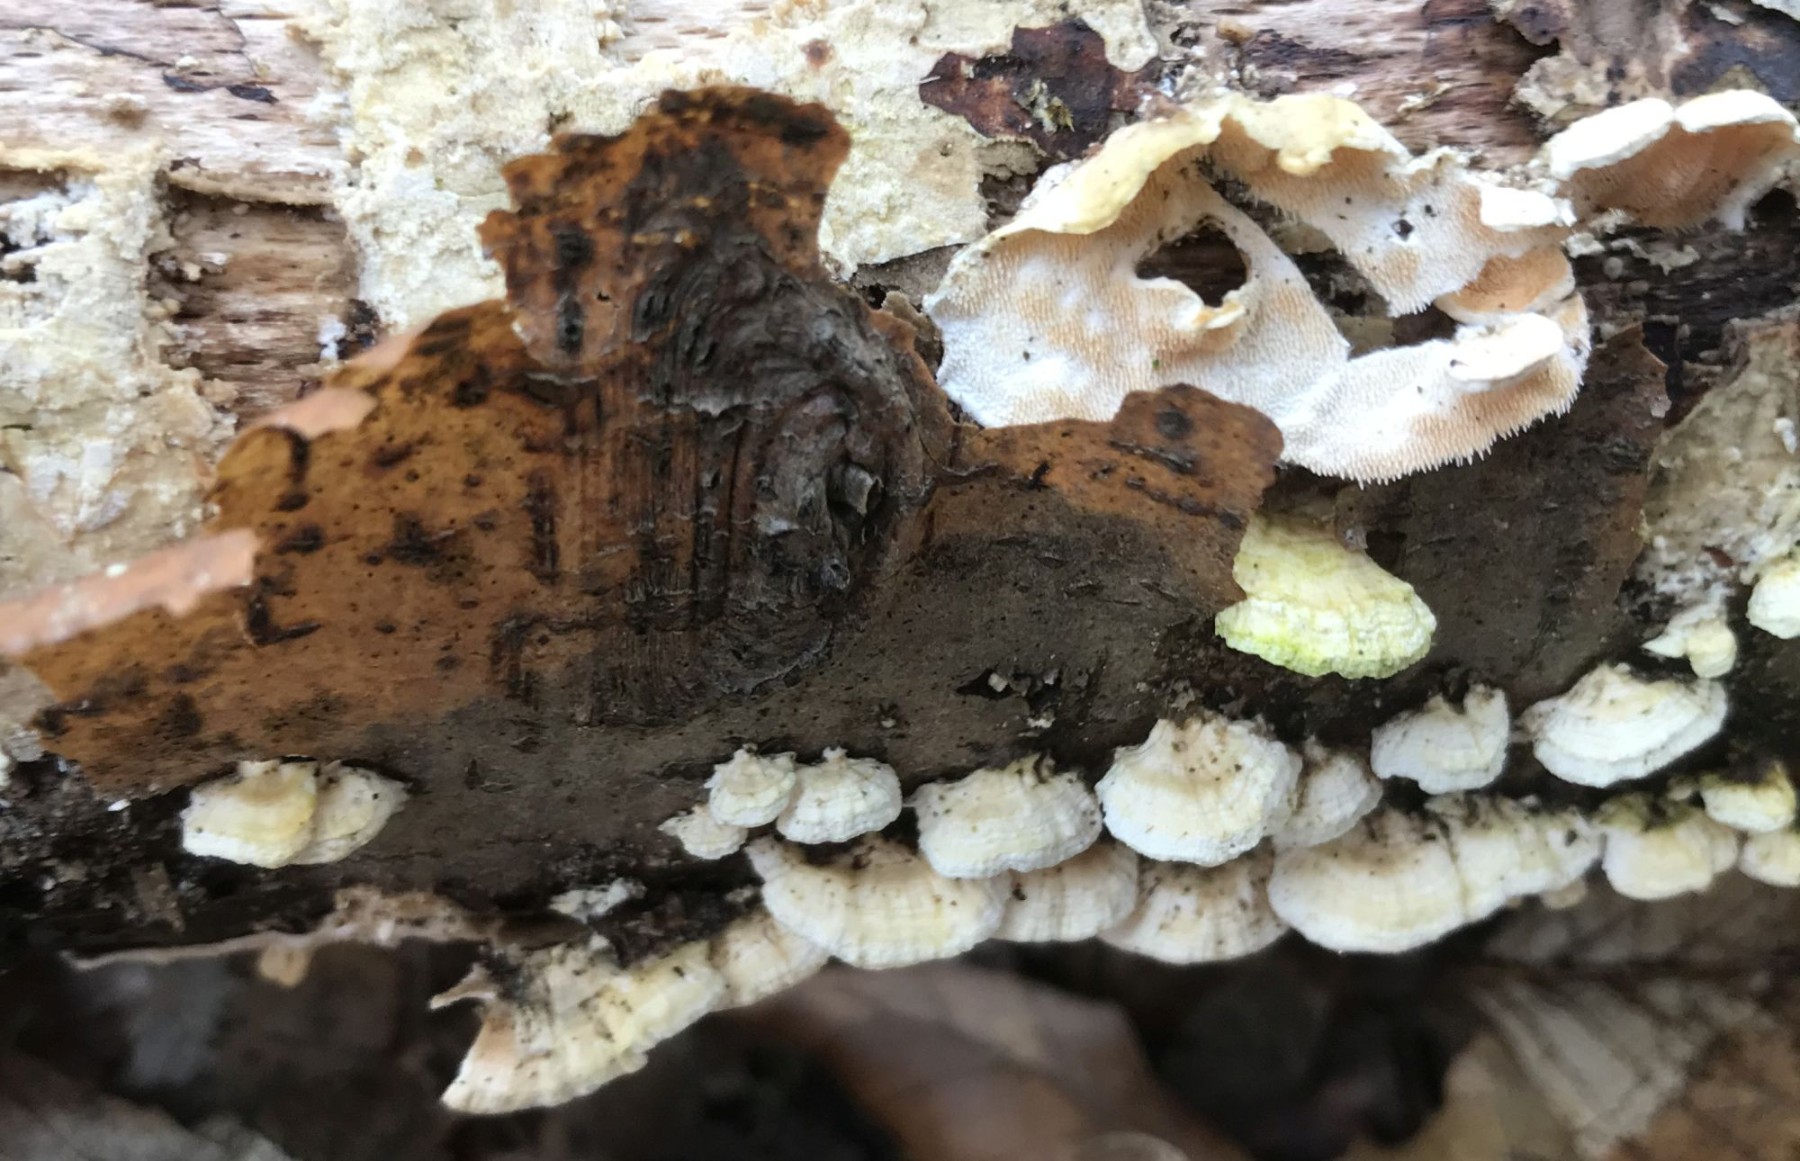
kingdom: Fungi
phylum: Basidiomycota
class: Agaricomycetes
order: Polyporales
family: Steccherinaceae
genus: Steccherinum
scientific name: Steccherinum ochraceum
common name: almindelig skønpig
